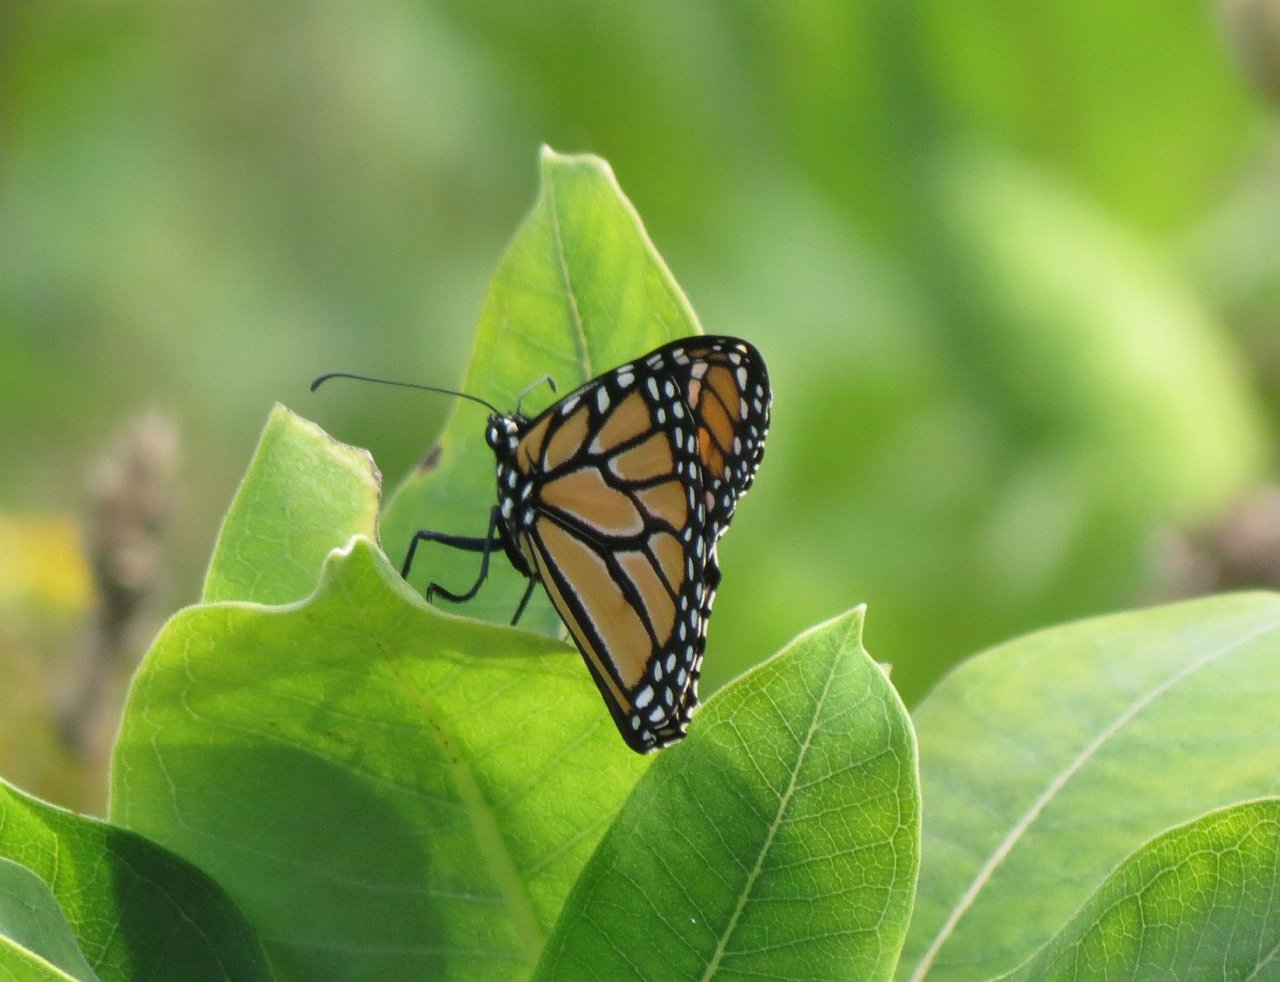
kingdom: Animalia
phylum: Arthropoda
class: Insecta
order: Lepidoptera
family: Nymphalidae
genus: Danaus
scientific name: Danaus plexippus
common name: Monarch
